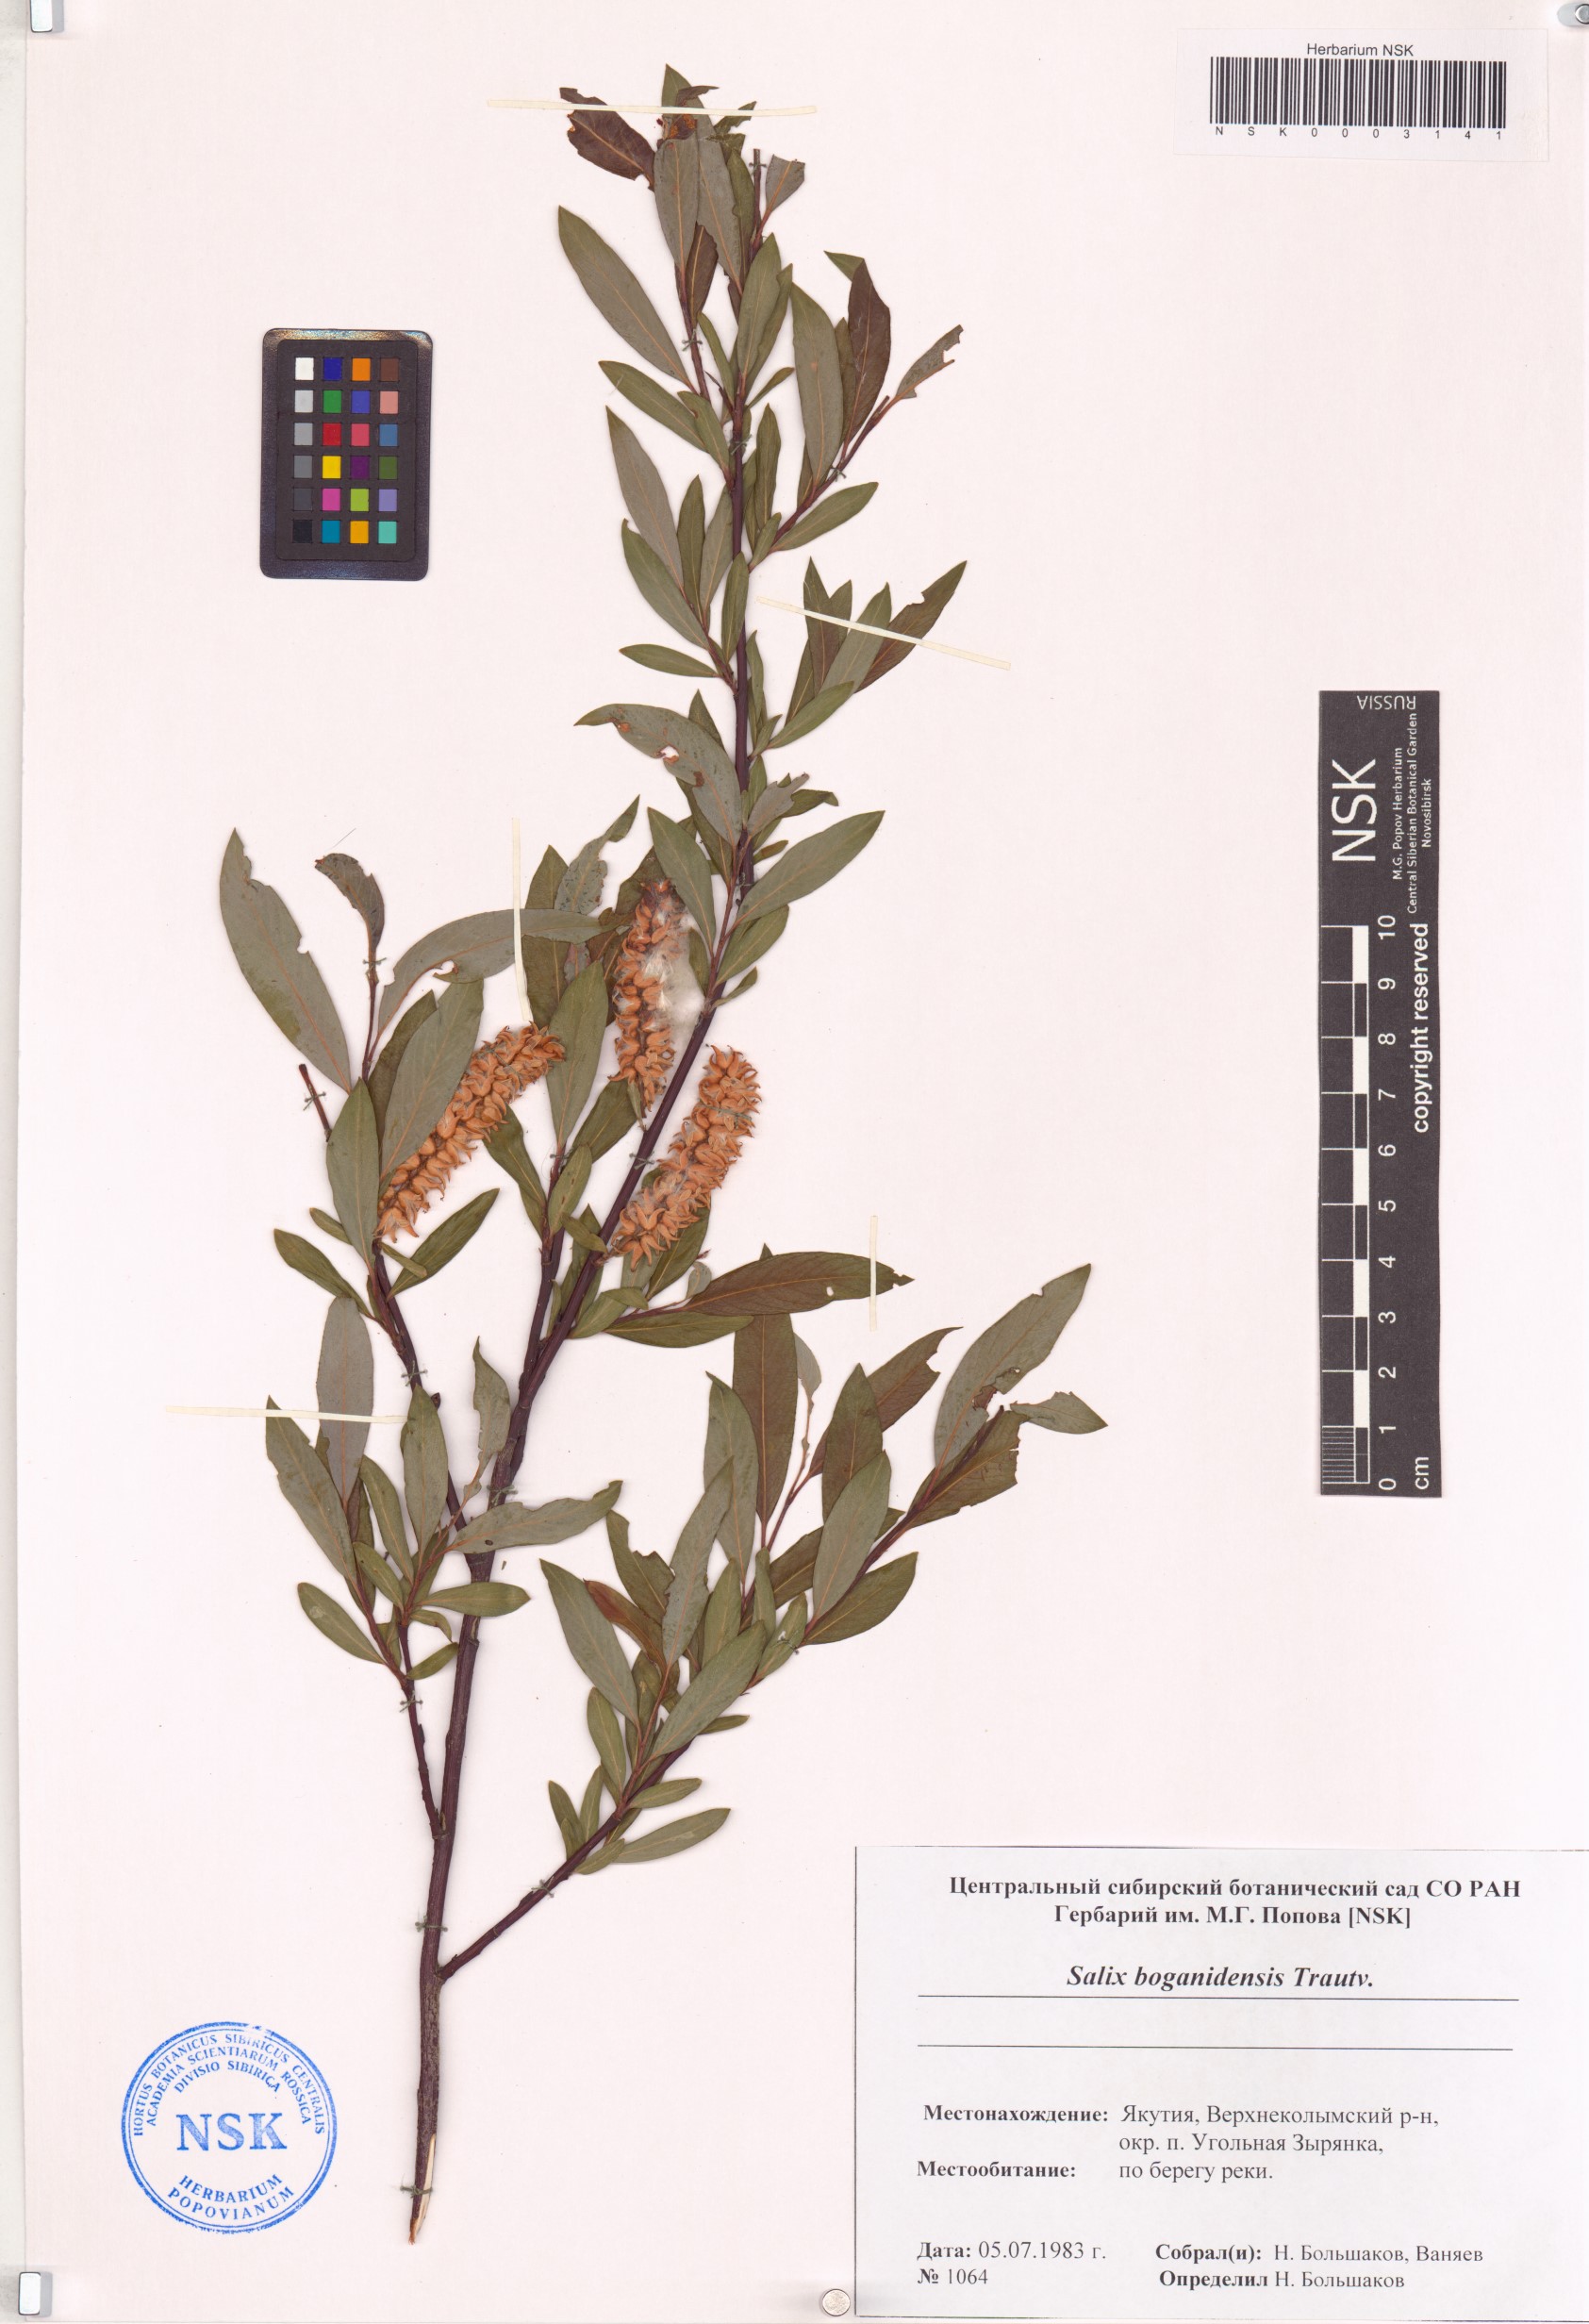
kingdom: Plantae
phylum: Tracheophyta
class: Magnoliopsida
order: Malpighiales
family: Salicaceae
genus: Salix
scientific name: Salix boganidensis
